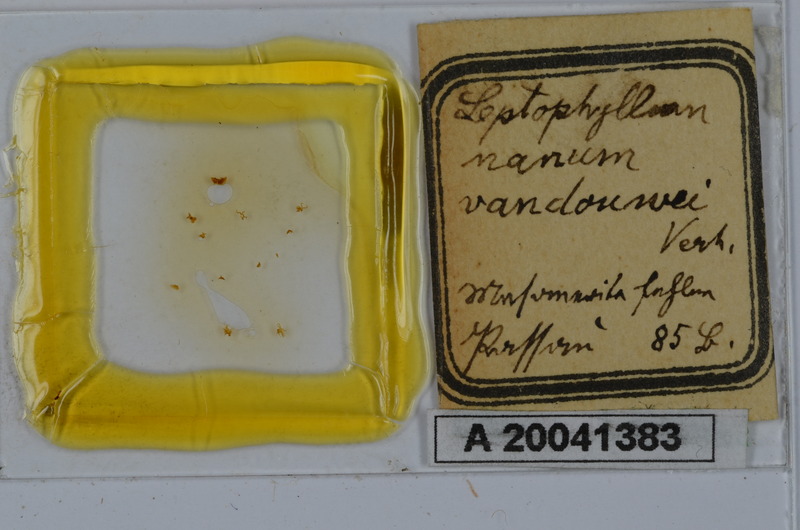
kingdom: Animalia
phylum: Arthropoda
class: Diplopoda
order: Julida
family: Julidae
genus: Leptophyllum
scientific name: Leptophyllum nanum
